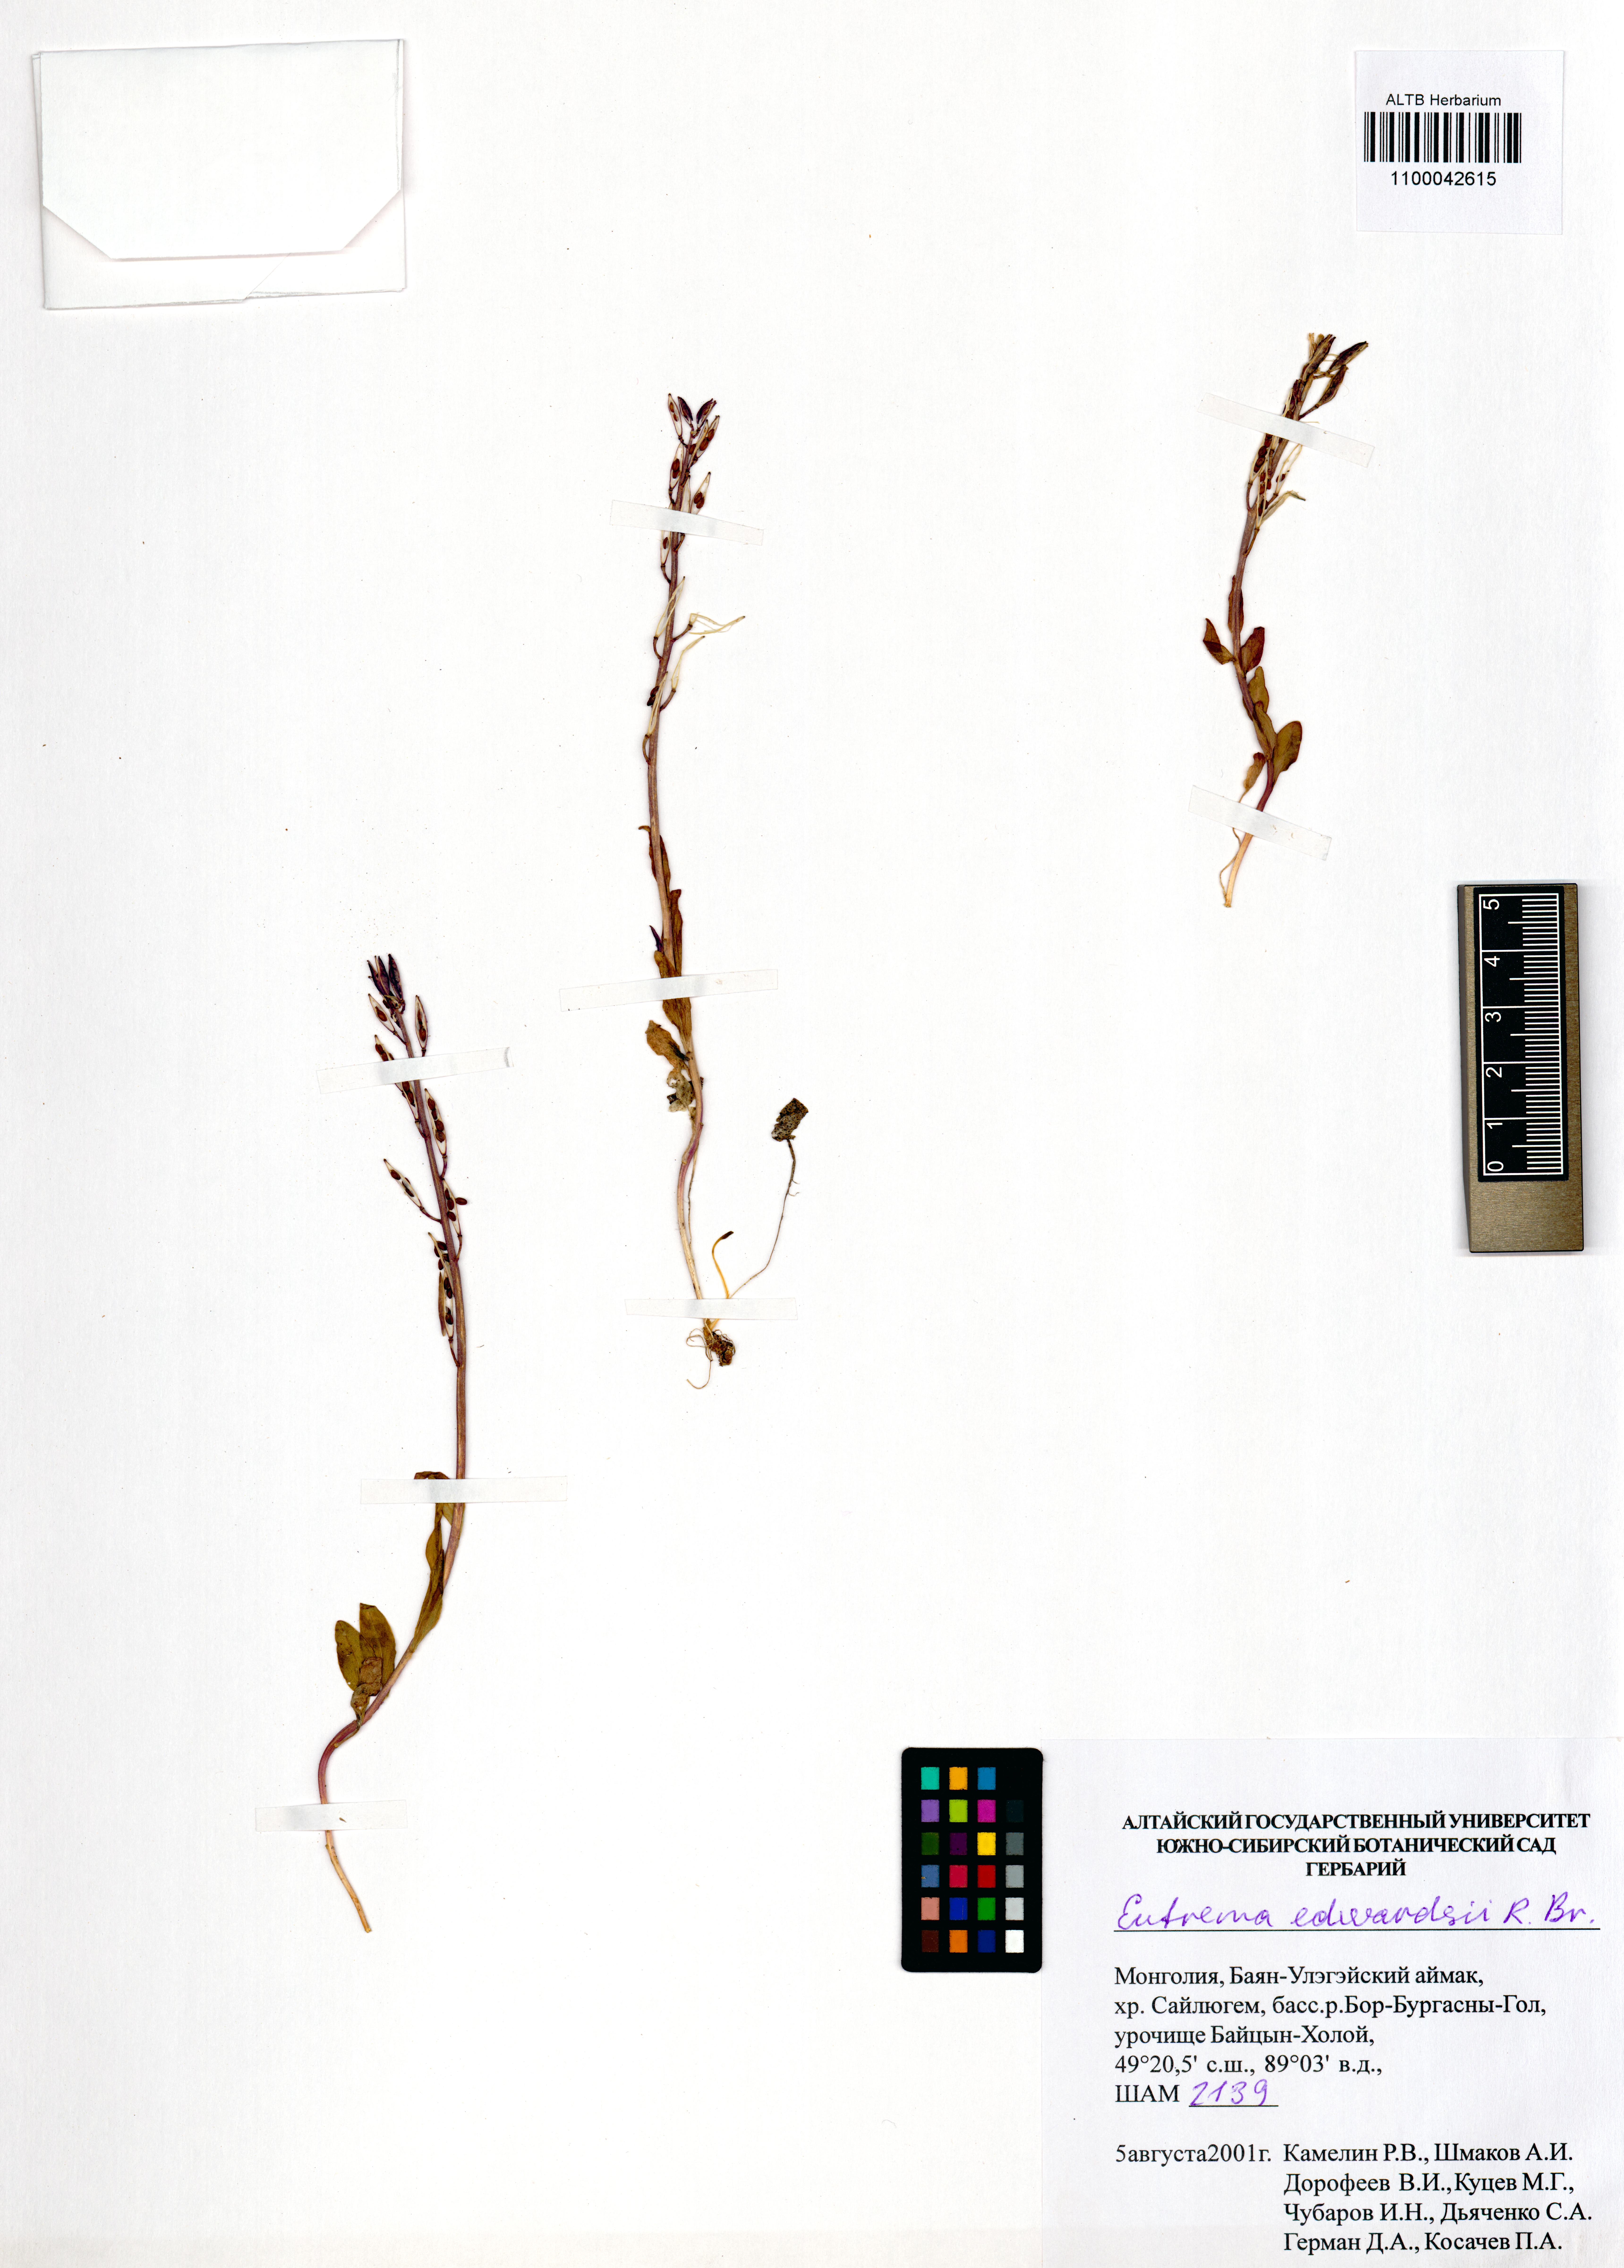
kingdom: Plantae
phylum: Tracheophyta
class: Magnoliopsida
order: Brassicales
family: Brassicaceae
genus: Eutrema
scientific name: Eutrema edwardsii
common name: Penland alpine fen mustard
